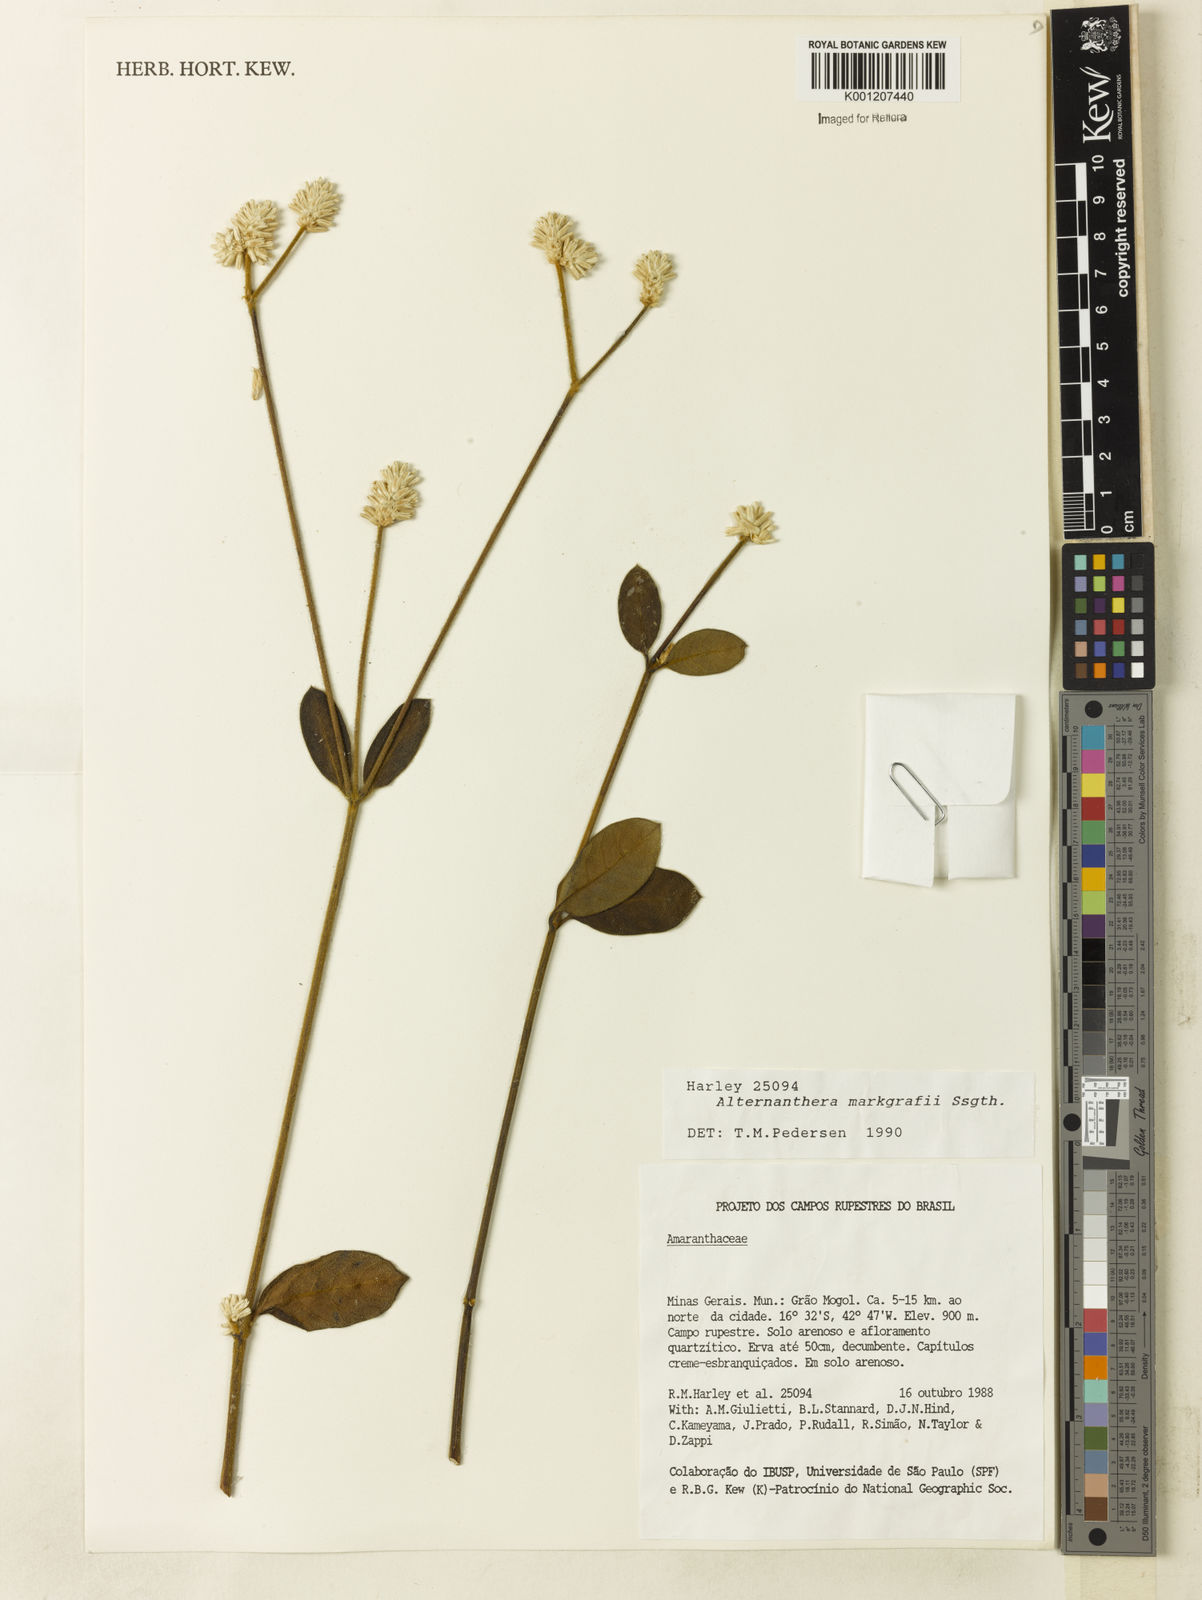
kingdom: Plantae
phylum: Tracheophyta
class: Magnoliopsida
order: Caryophyllales
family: Amaranthaceae
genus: Alternanthera
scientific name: Alternanthera markgrafii
